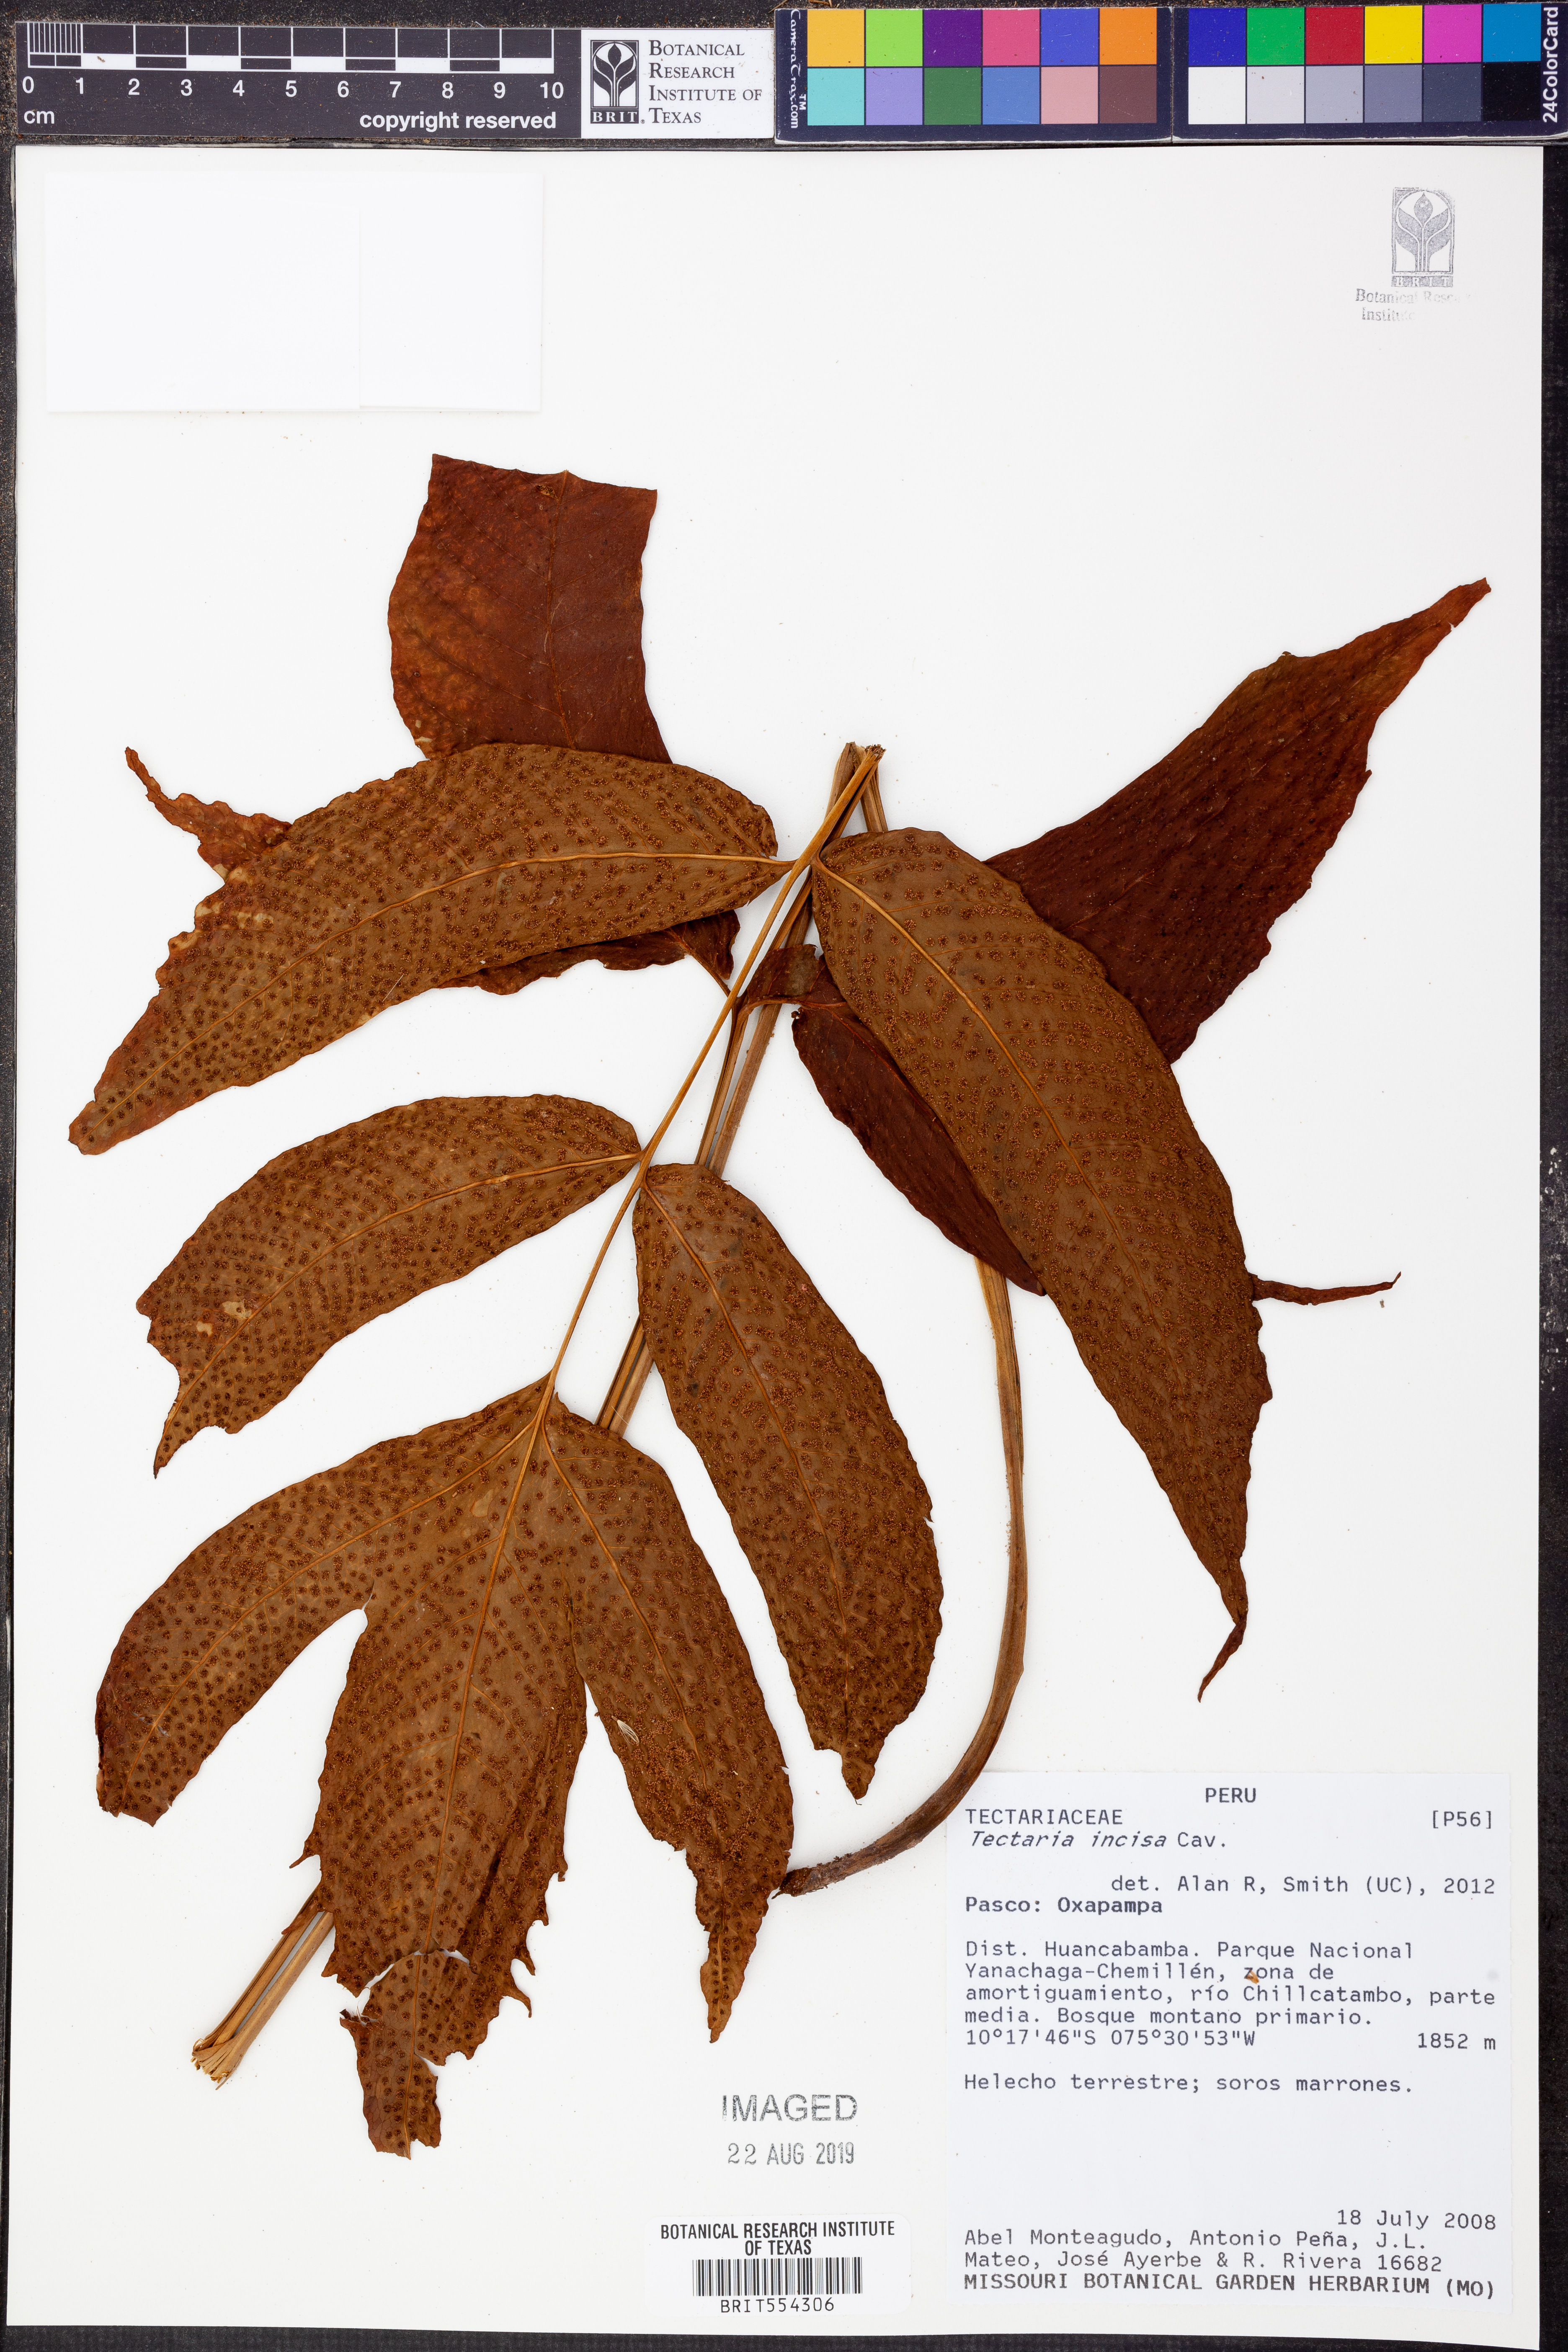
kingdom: Plantae
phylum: Tracheophyta
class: Polypodiopsida
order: Polypodiales
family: Tectariaceae
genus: Tectaria
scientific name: Tectaria incisa
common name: Incised halberd fern
